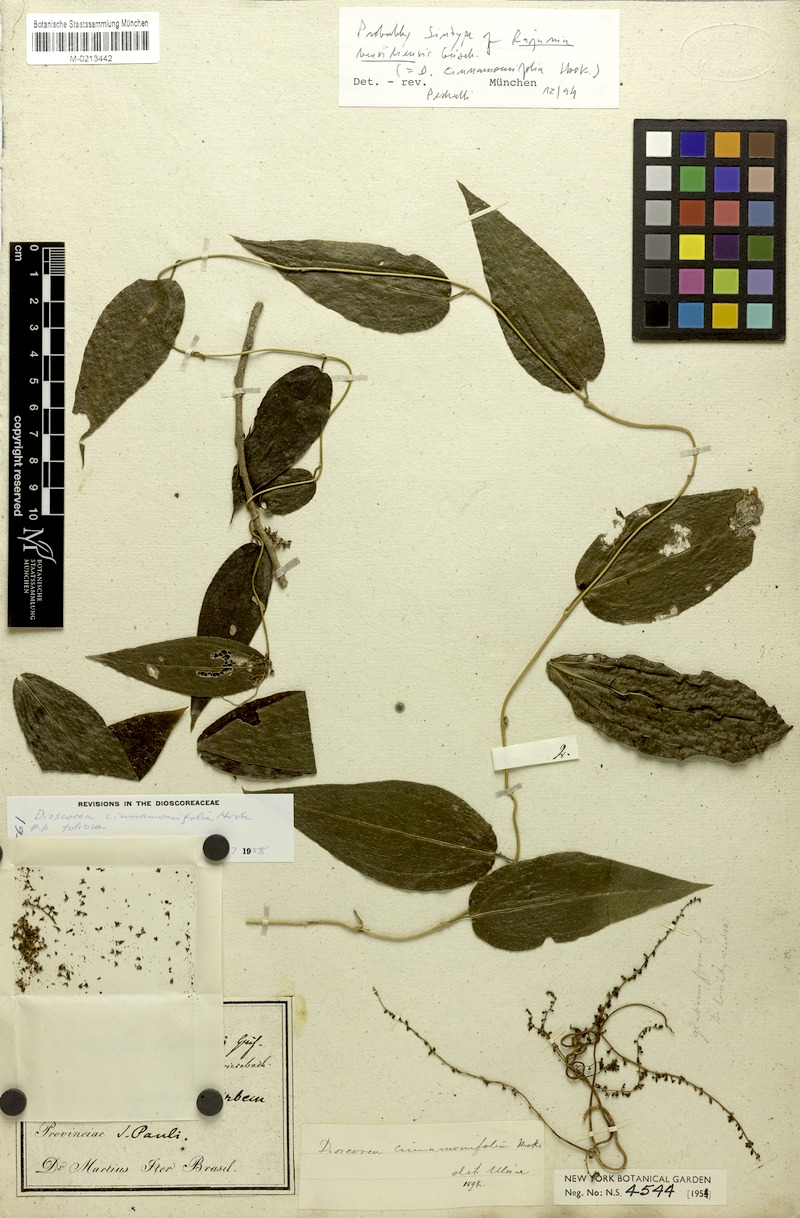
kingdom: Plantae
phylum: Tracheophyta
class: Liliopsida
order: Dioscoreales
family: Dioscoreaceae
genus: Dioscorea
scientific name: Dioscorea cinnamomifolia
